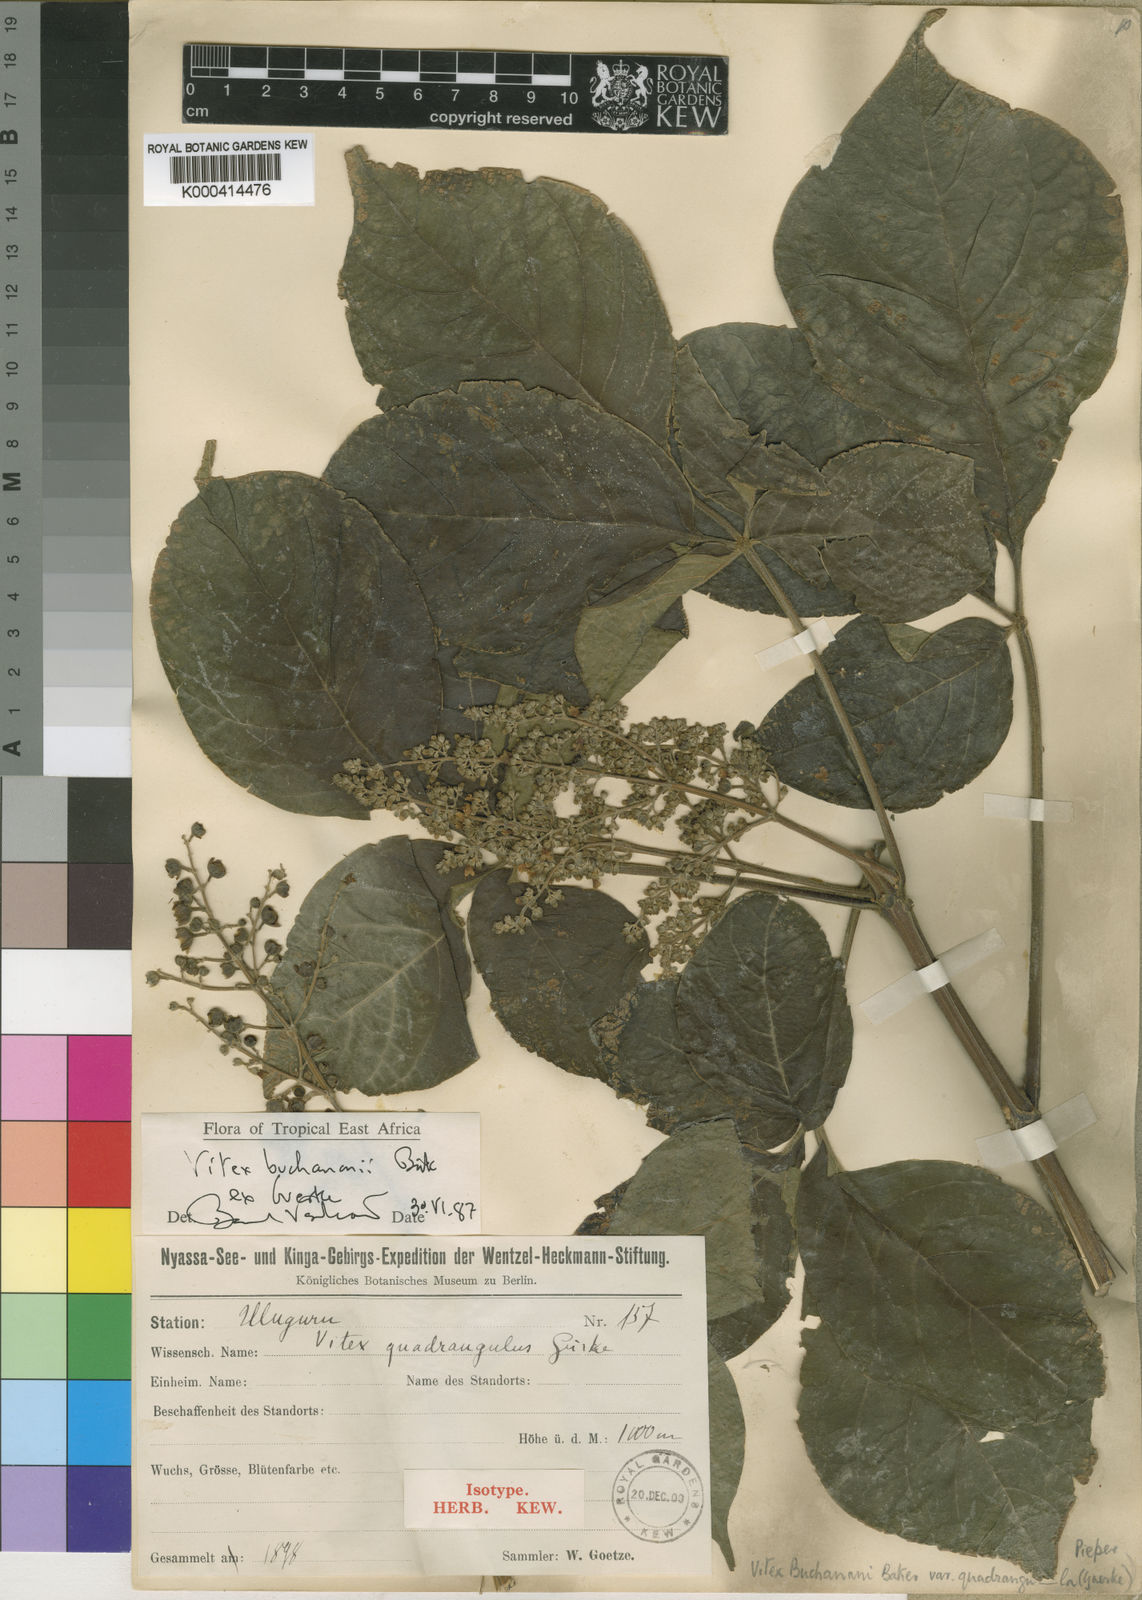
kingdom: Plantae
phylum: Tracheophyta
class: Magnoliopsida
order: Lamiales
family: Lamiaceae
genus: Vitex
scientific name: Vitex
